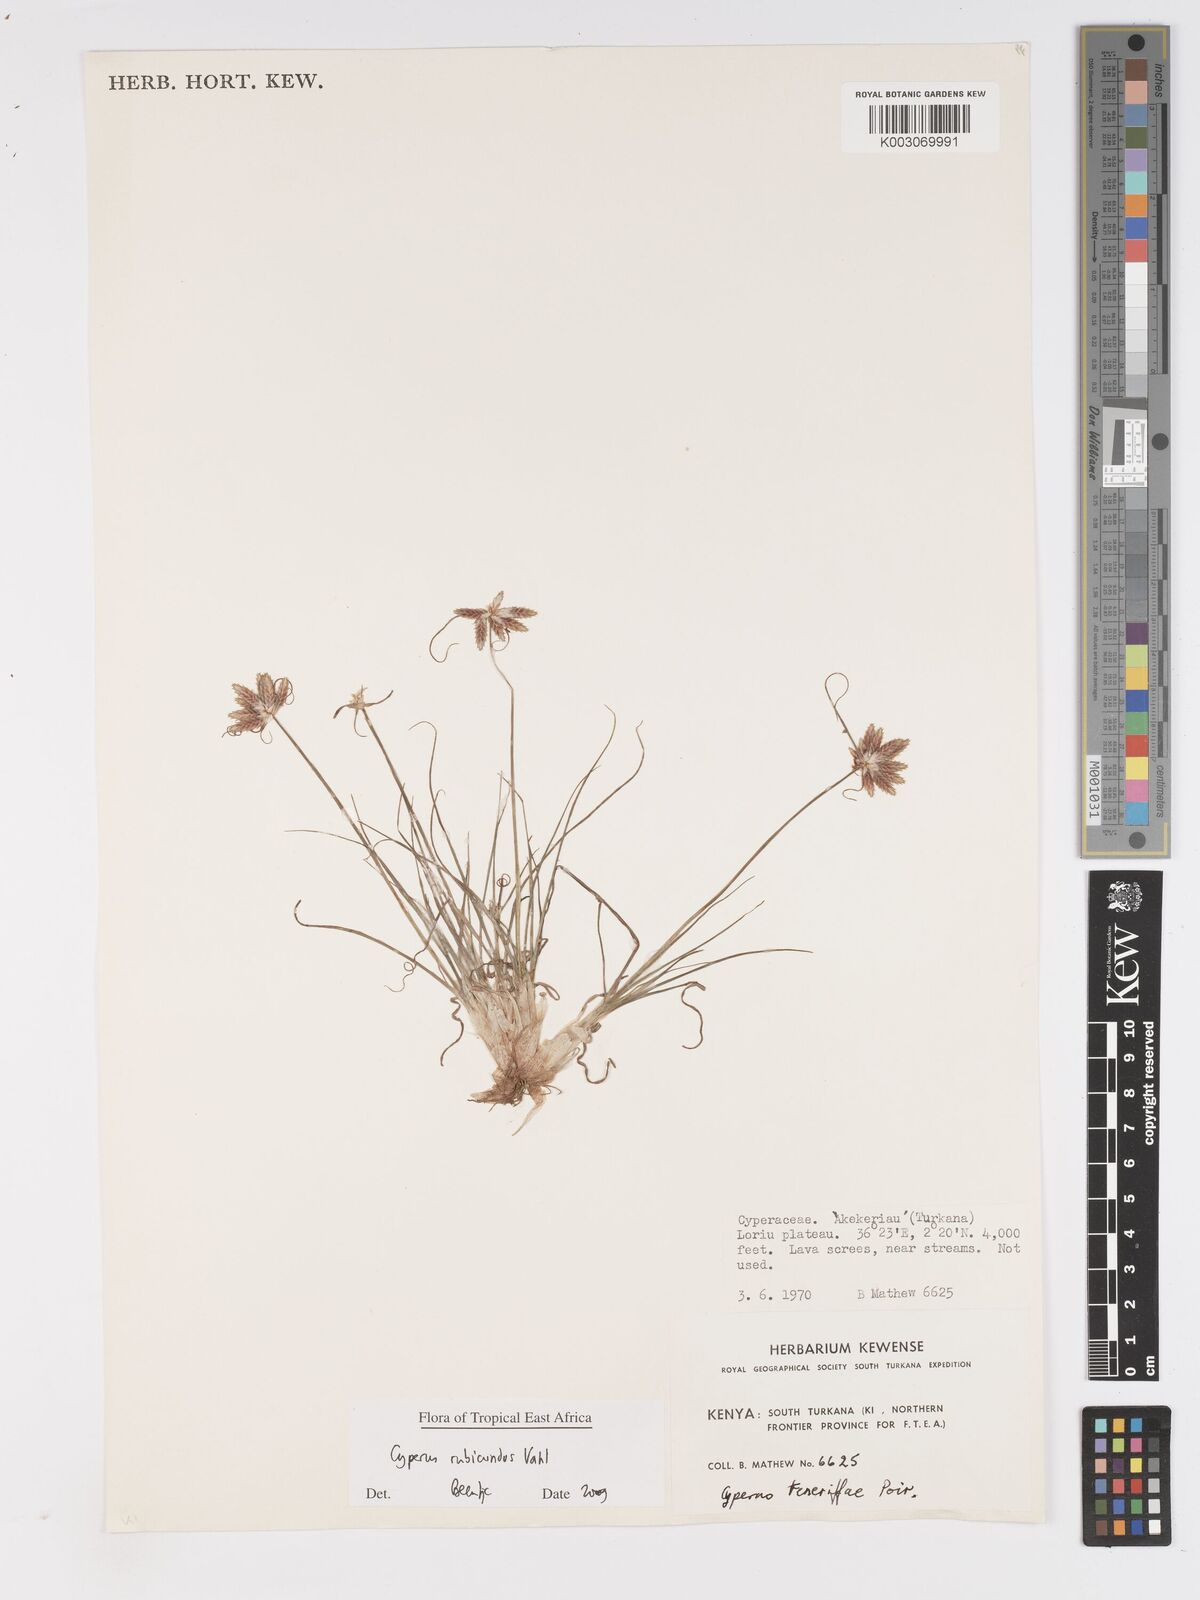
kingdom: Plantae
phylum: Tracheophyta
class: Liliopsida
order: Poales
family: Cyperaceae
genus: Cyperus
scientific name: Cyperus rubicundus
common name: Coco-grass
